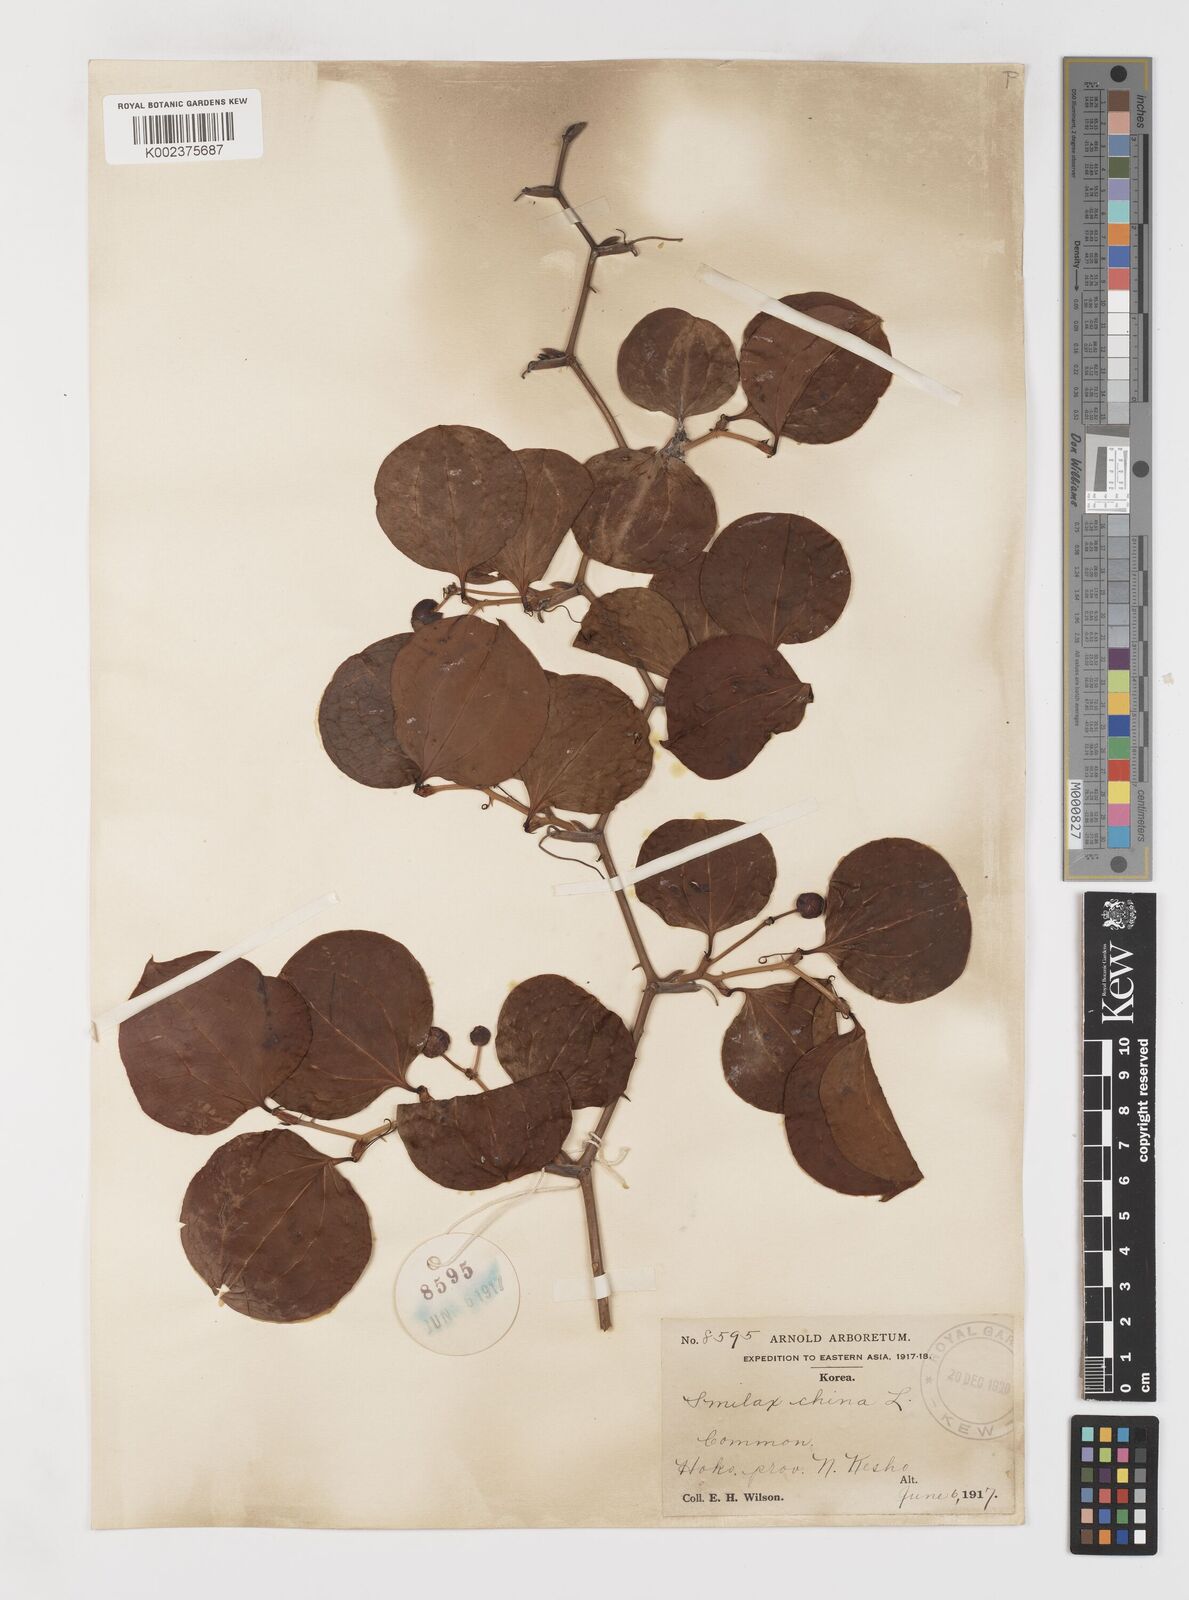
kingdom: Plantae
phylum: Tracheophyta
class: Liliopsida
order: Liliales
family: Smilacaceae
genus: Smilax
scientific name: Smilax china
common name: Chinaroot
